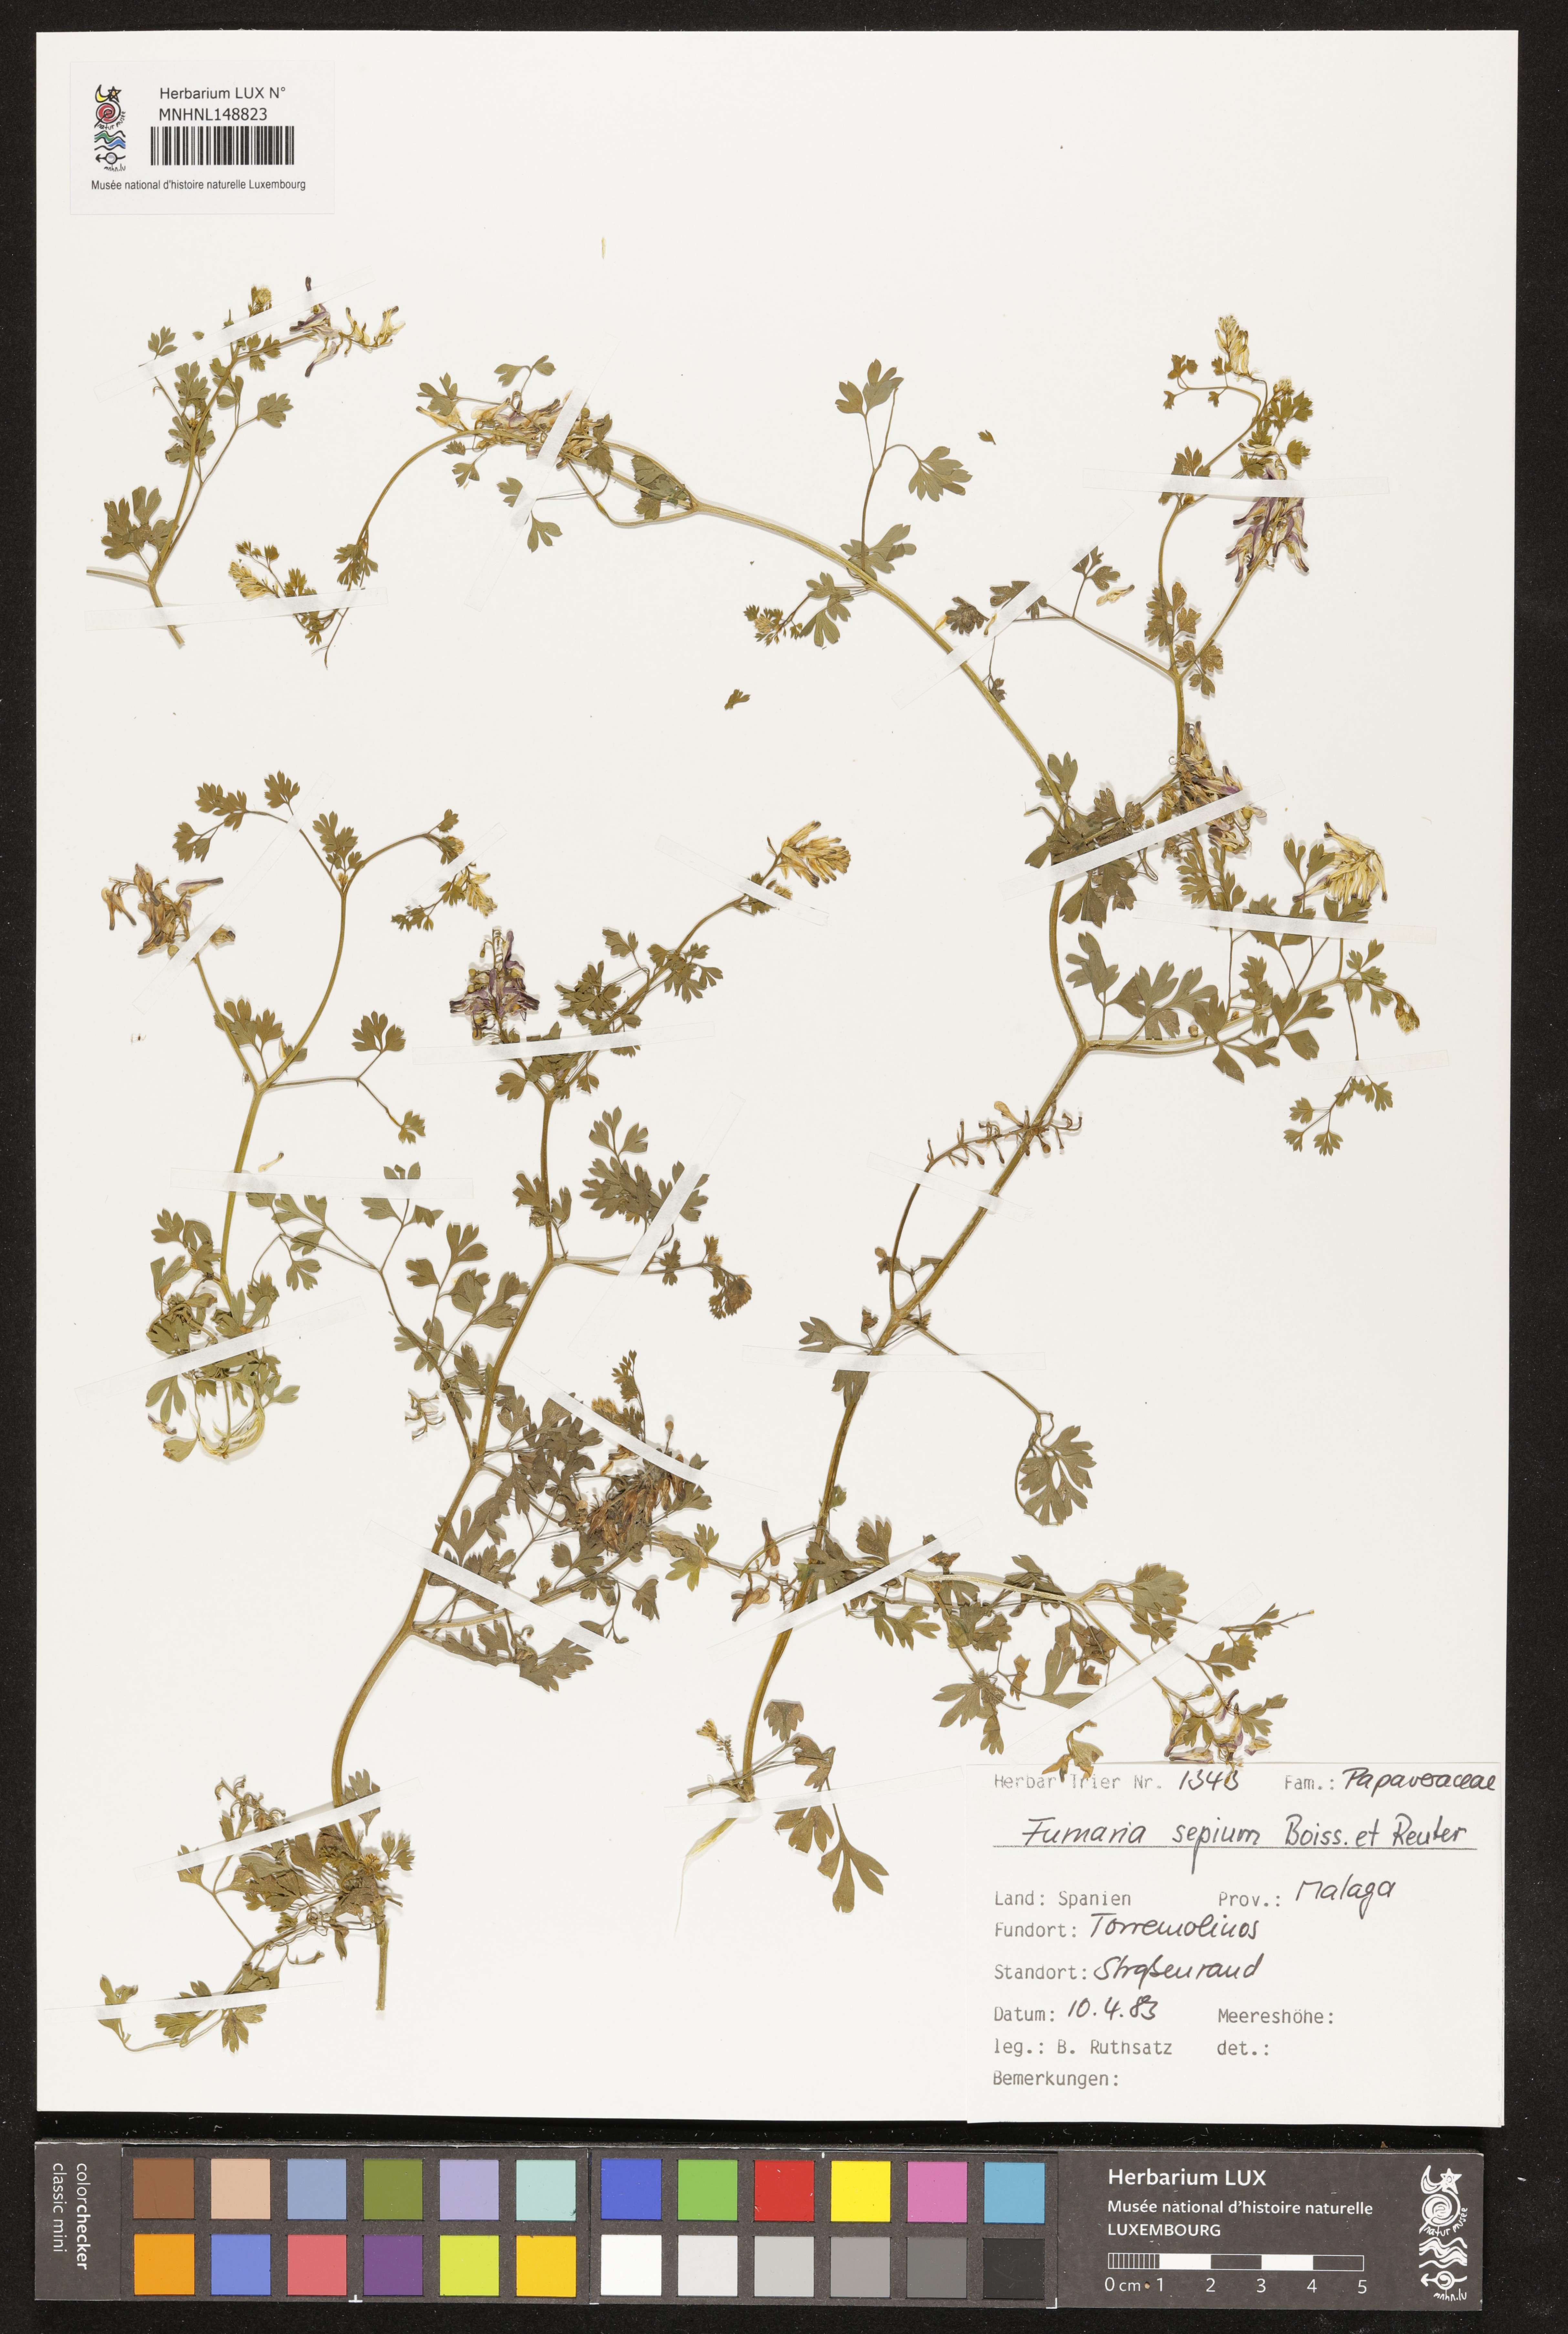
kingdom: Plantae
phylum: Tracheophyta
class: Magnoliopsida
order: Ranunculales
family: Papaveraceae
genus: Fumaria
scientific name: Fumaria sepium
